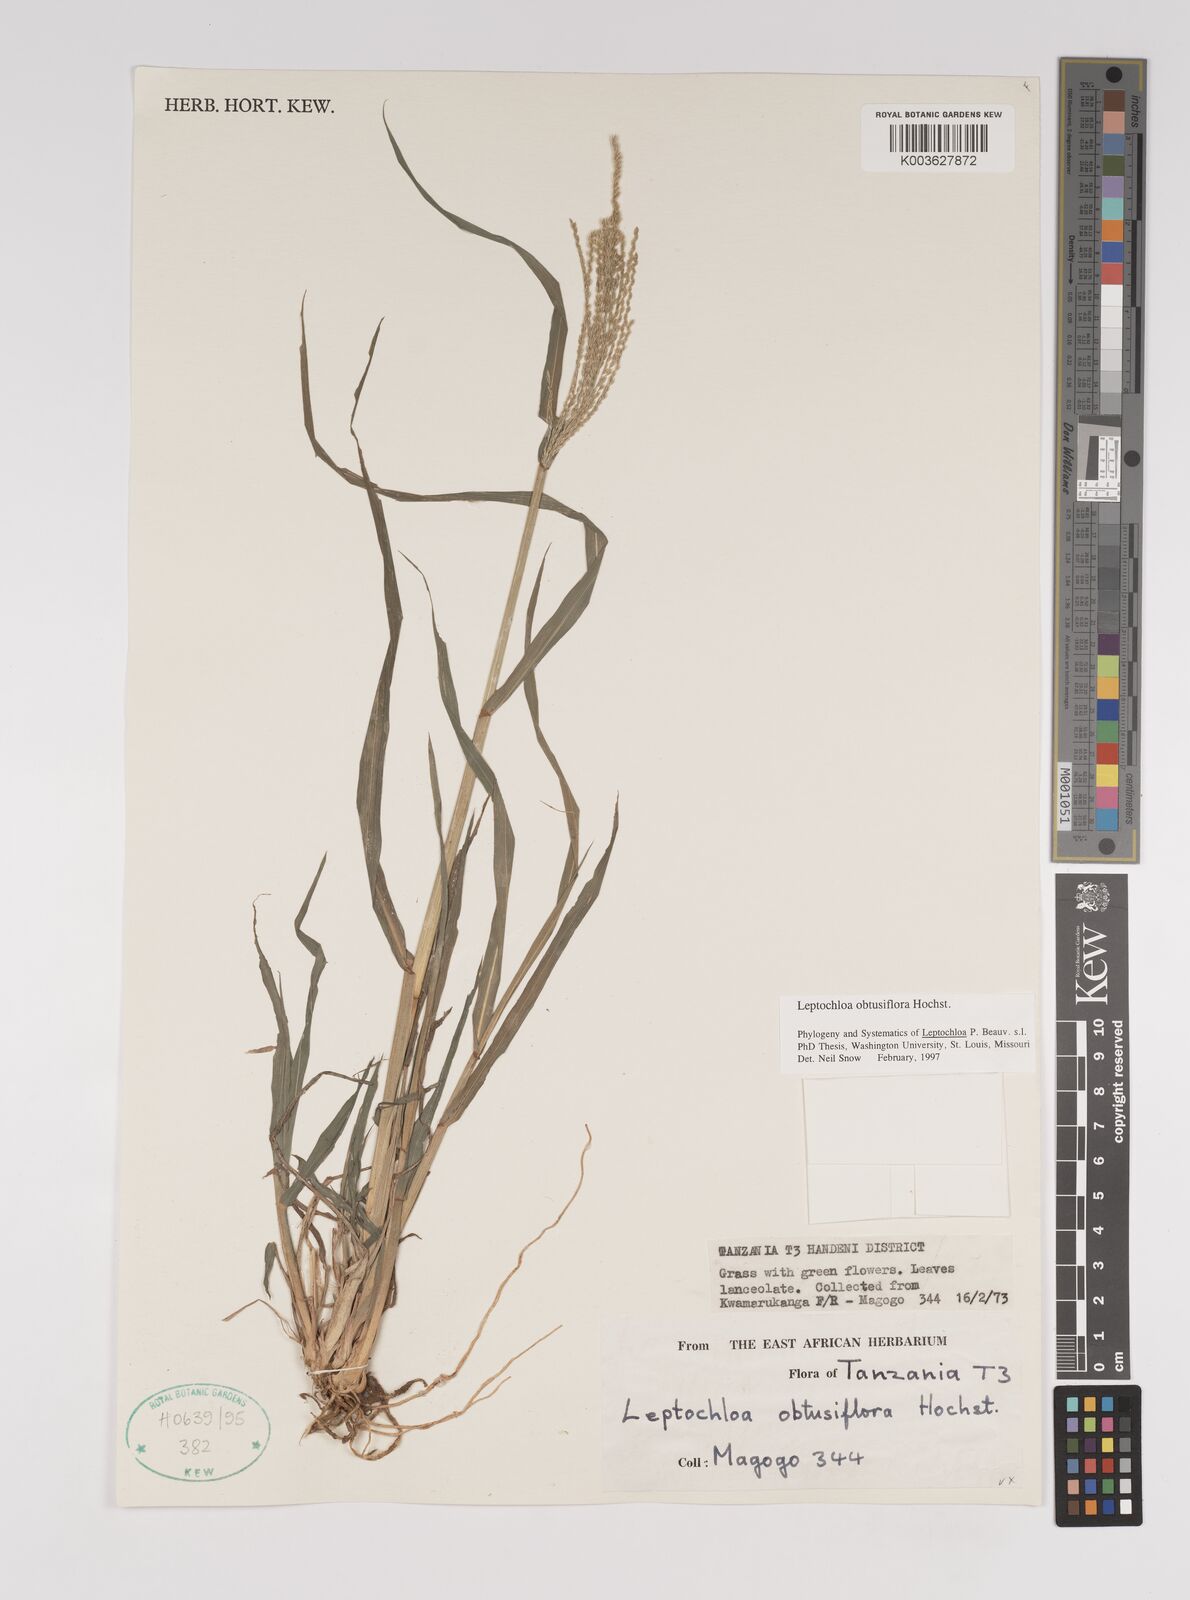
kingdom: Plantae
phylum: Tracheophyta
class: Liliopsida
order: Poales
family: Poaceae
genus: Disakisperma
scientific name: Disakisperma obtusiflorum
